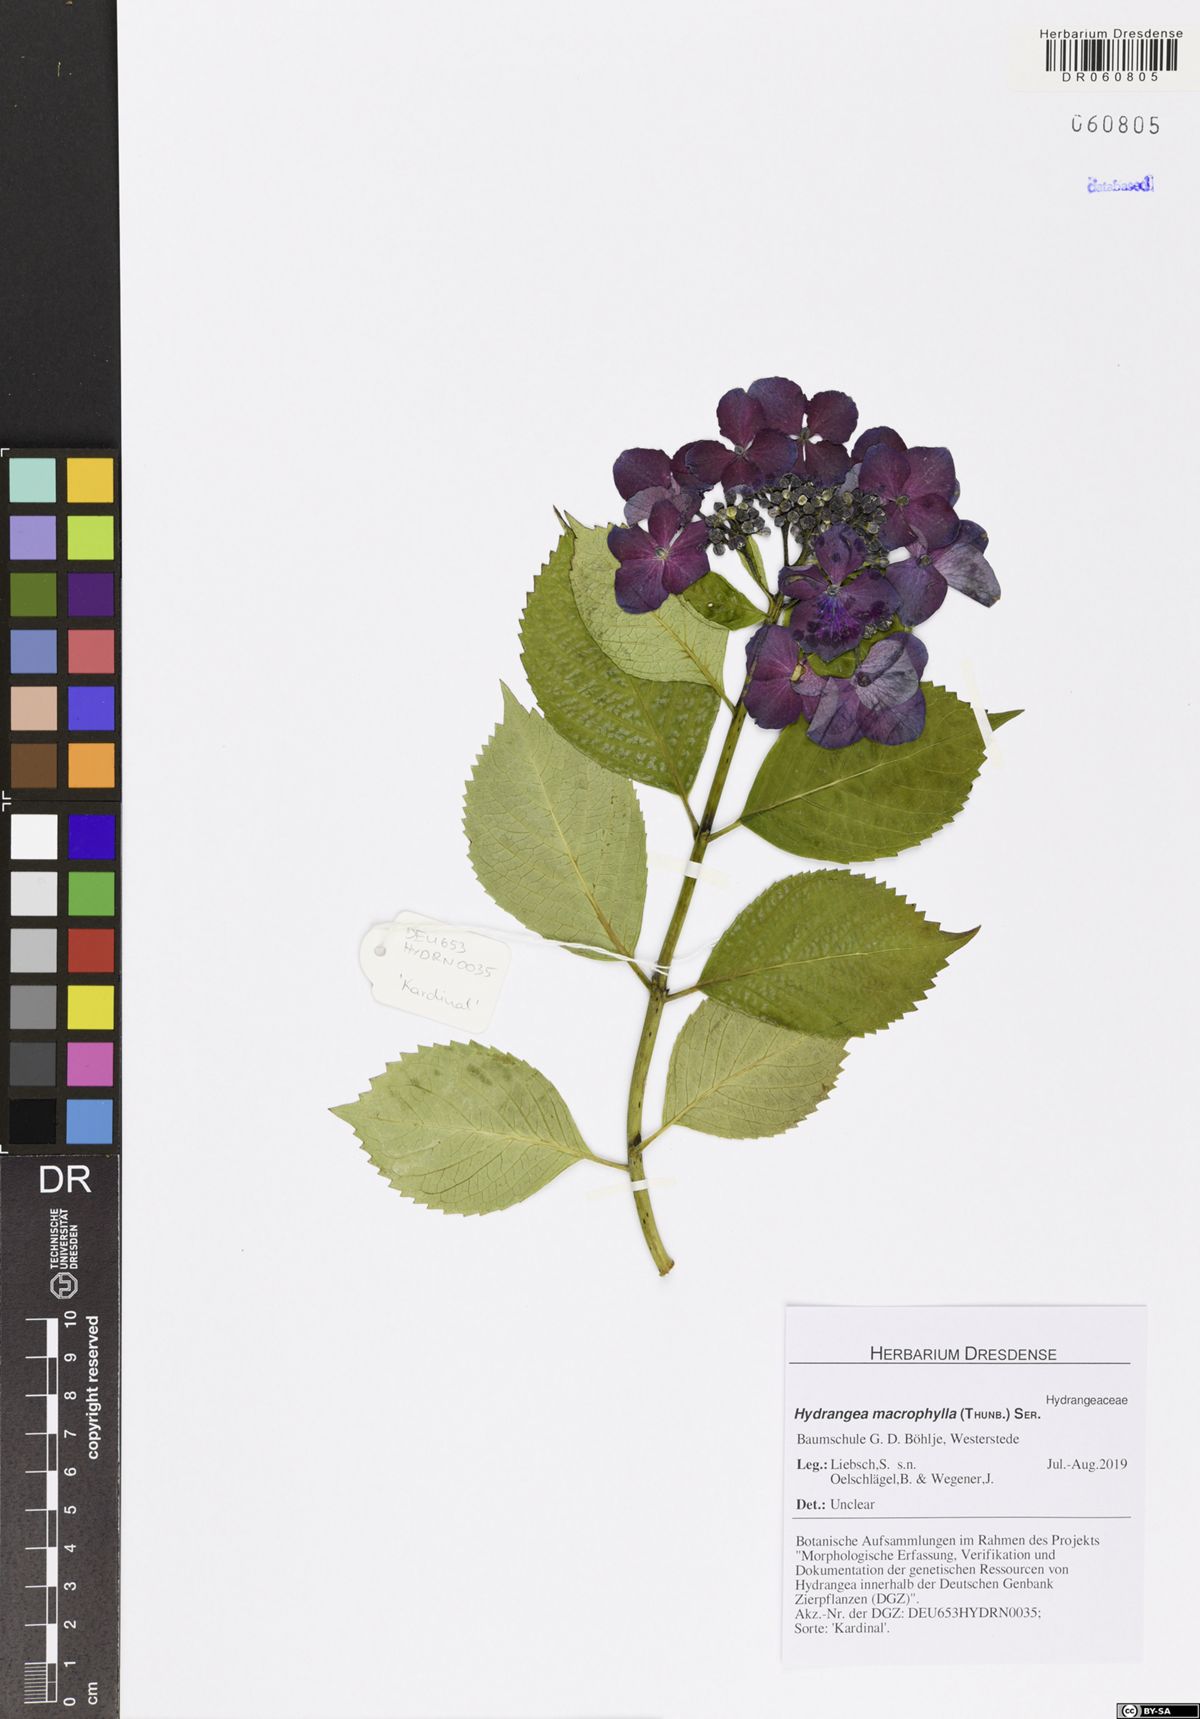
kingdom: Plantae
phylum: Tracheophyta
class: Magnoliopsida
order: Cornales
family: Hydrangeaceae
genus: Hydrangea
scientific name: Hydrangea macrophylla
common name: Hydrangea
